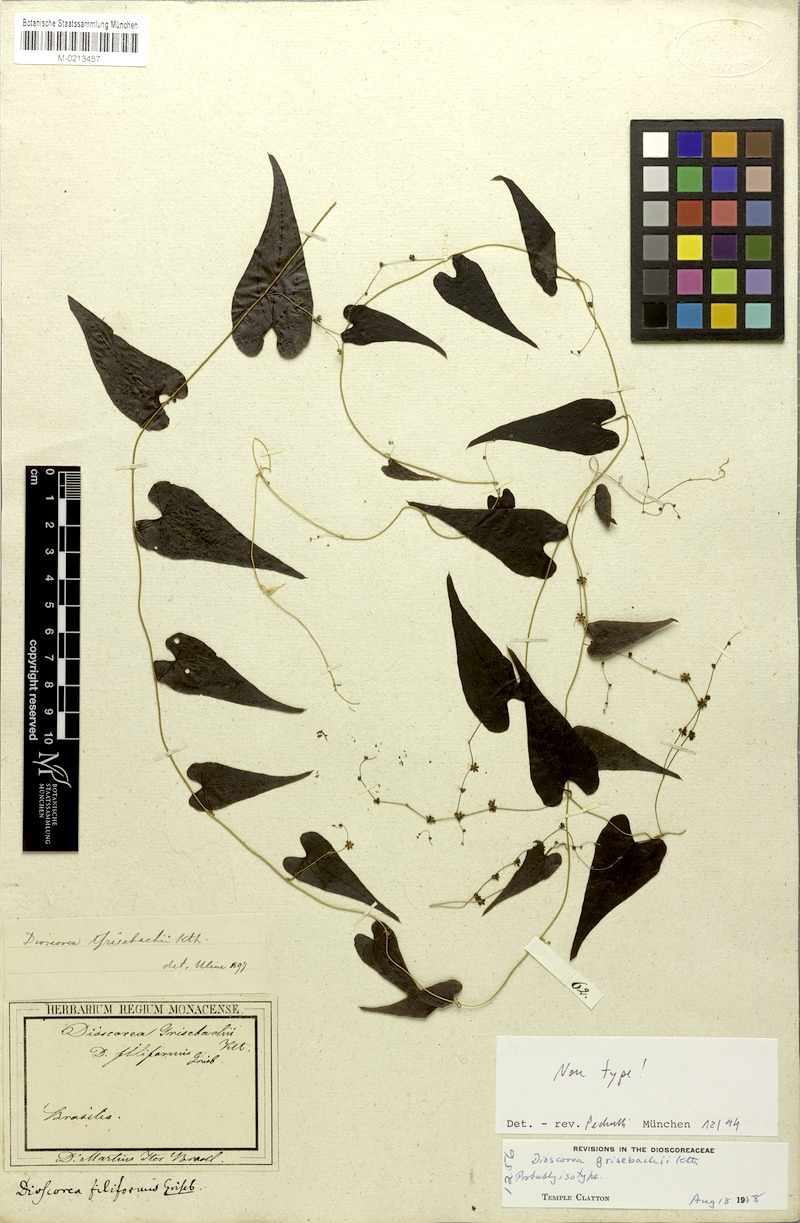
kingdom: Plantae
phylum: Tracheophyta
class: Liliopsida
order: Dioscoreales
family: Dioscoreaceae
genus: Dioscorea
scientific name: Dioscorea grisebachii
